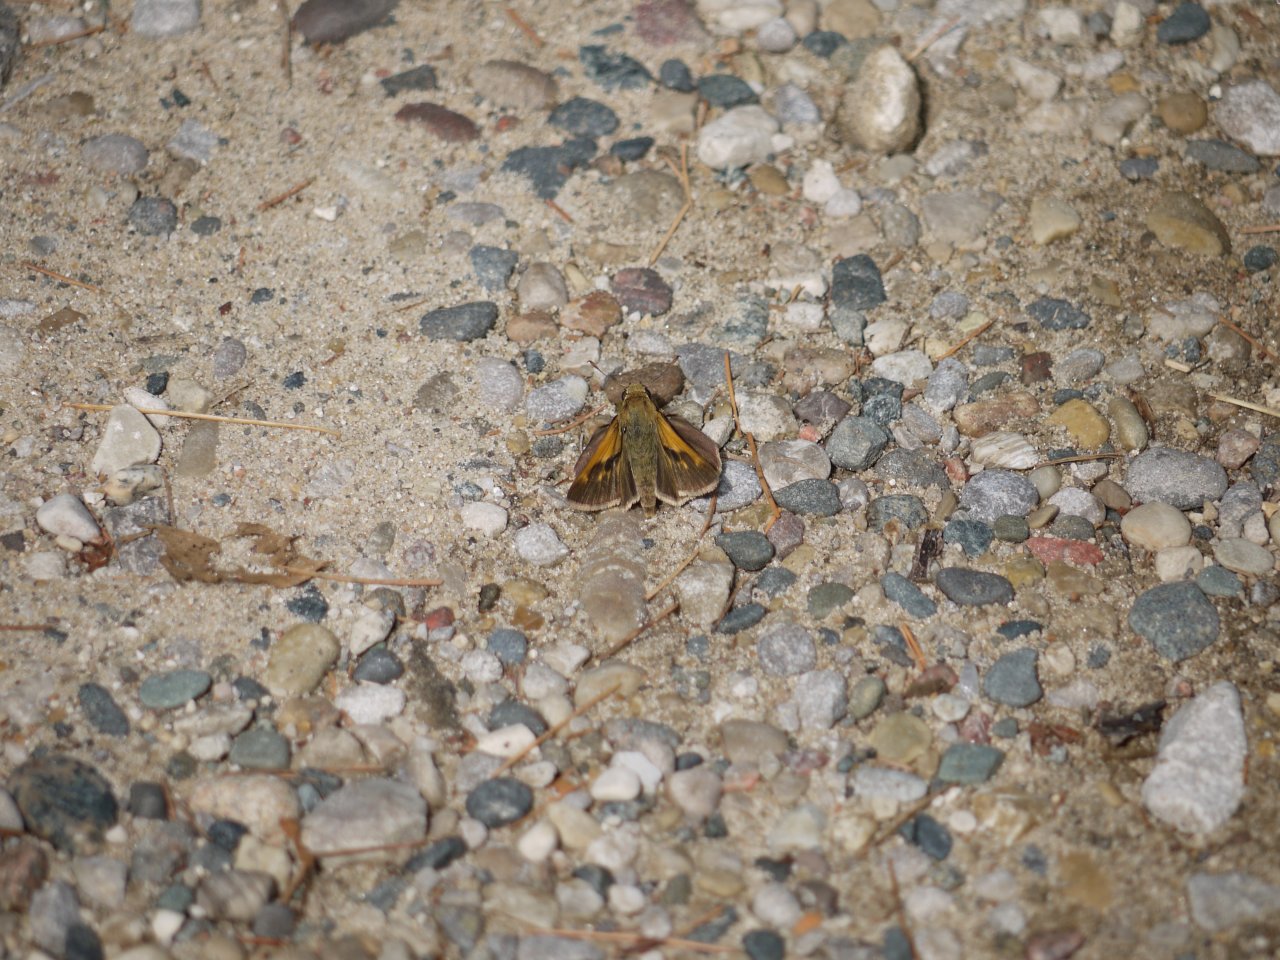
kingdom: Animalia
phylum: Arthropoda
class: Insecta
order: Lepidoptera
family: Hesperiidae
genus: Polites
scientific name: Polites
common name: Crossline Skipper
